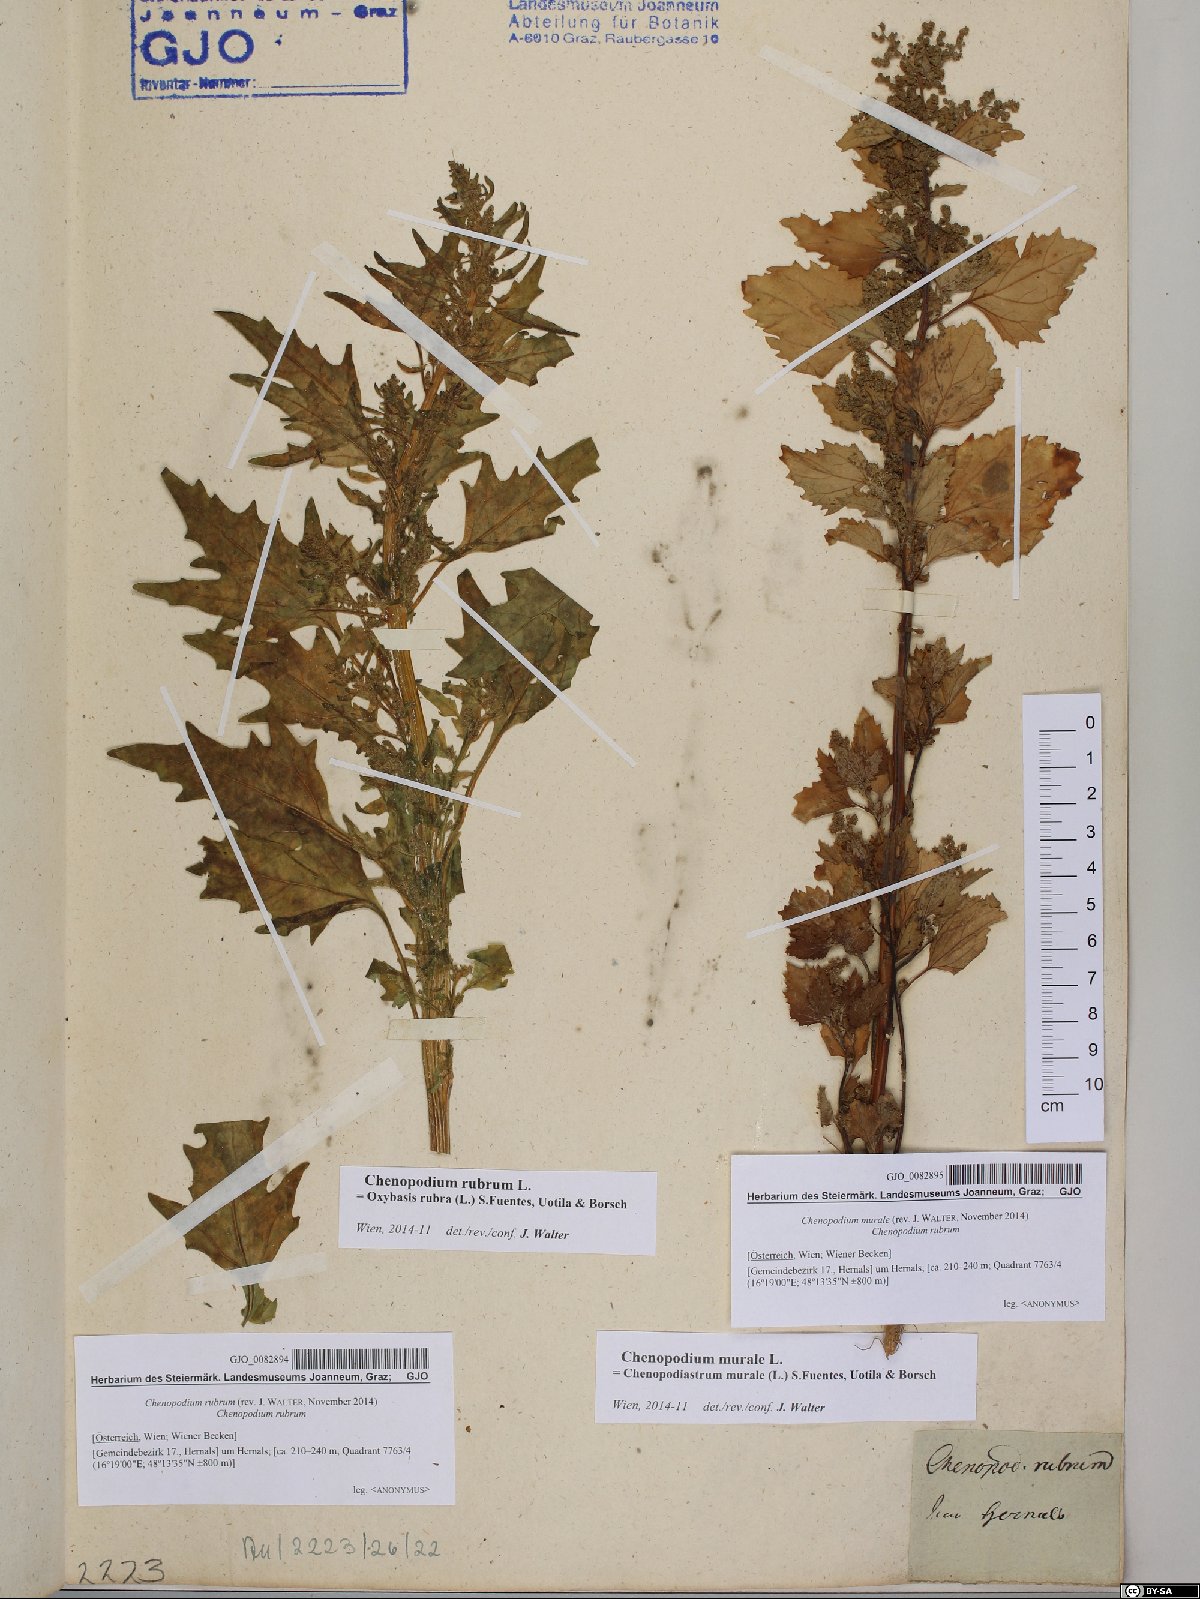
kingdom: Plantae
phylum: Tracheophyta
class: Magnoliopsida
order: Caryophyllales
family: Amaranthaceae
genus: Chenopodiastrum
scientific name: Chenopodiastrum murale
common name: Sowbane
